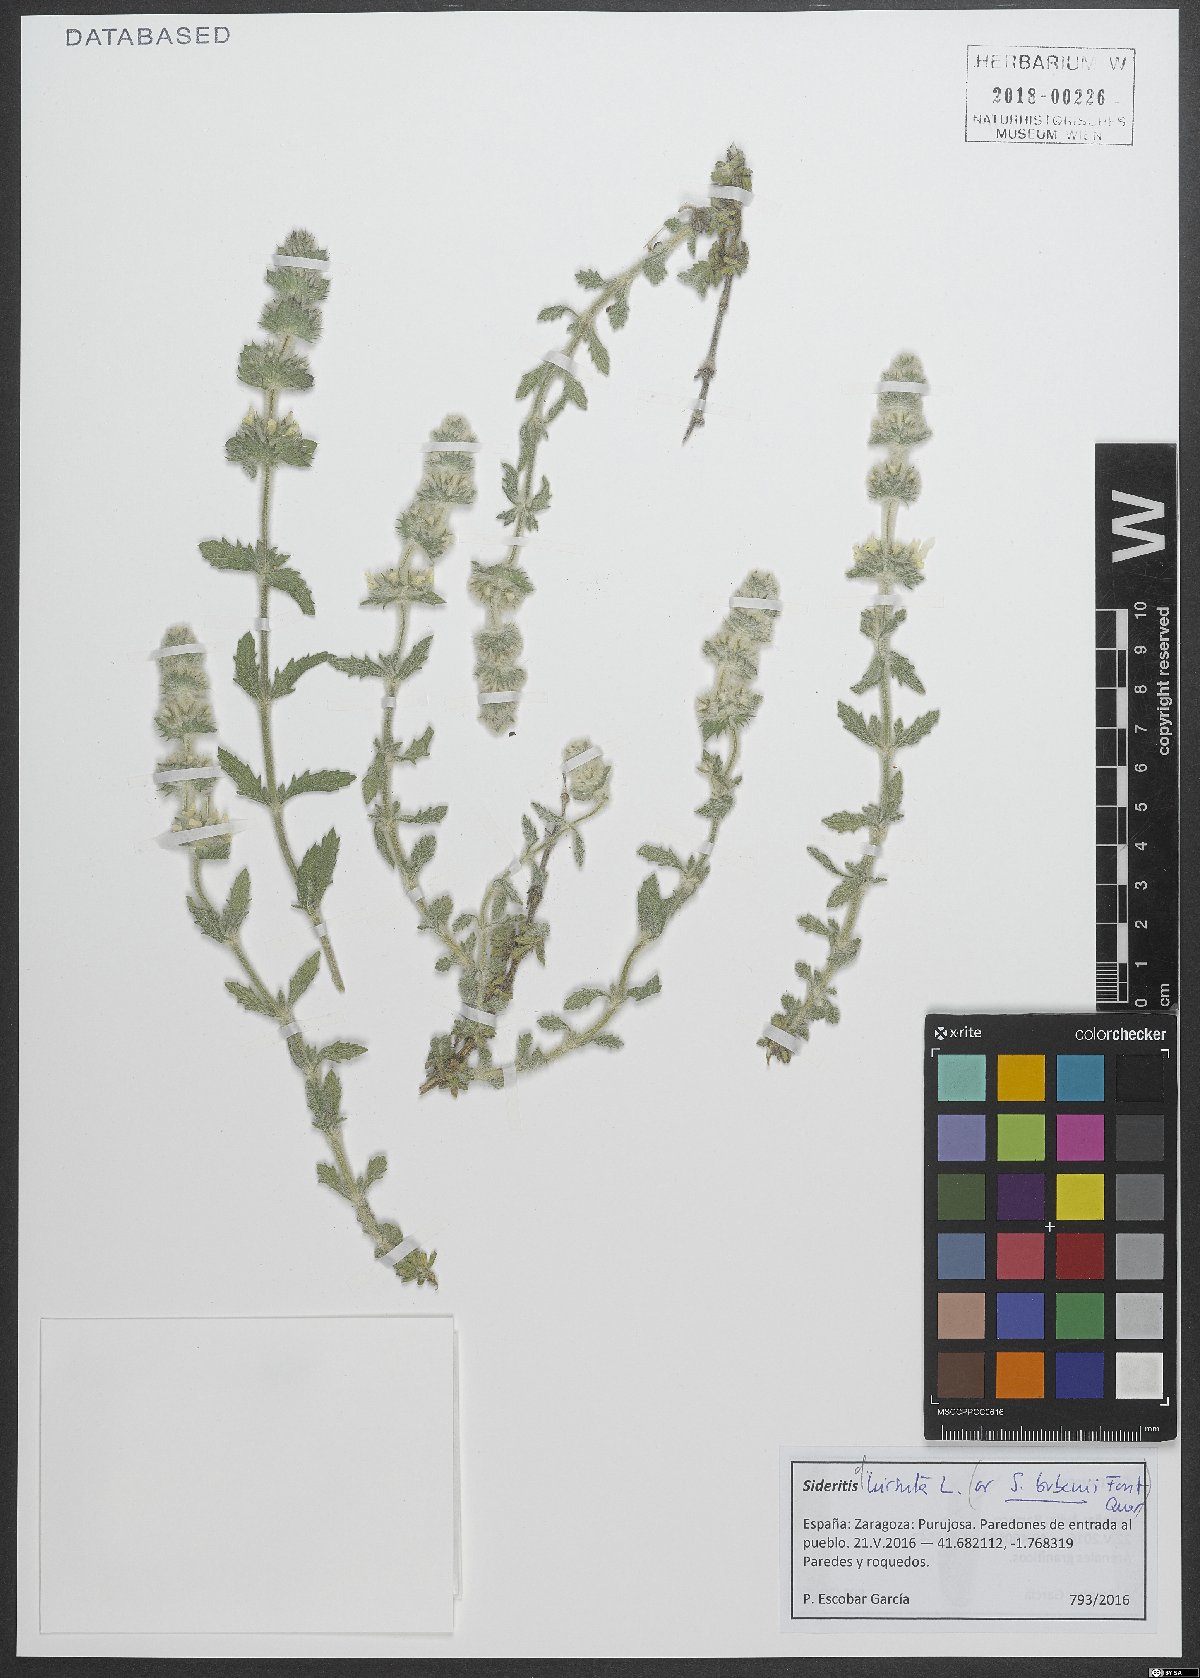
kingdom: Plantae
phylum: Tracheophyta
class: Magnoliopsida
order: Lamiales
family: Lamiaceae
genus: Sideritis
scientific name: Sideritis hirsuta
